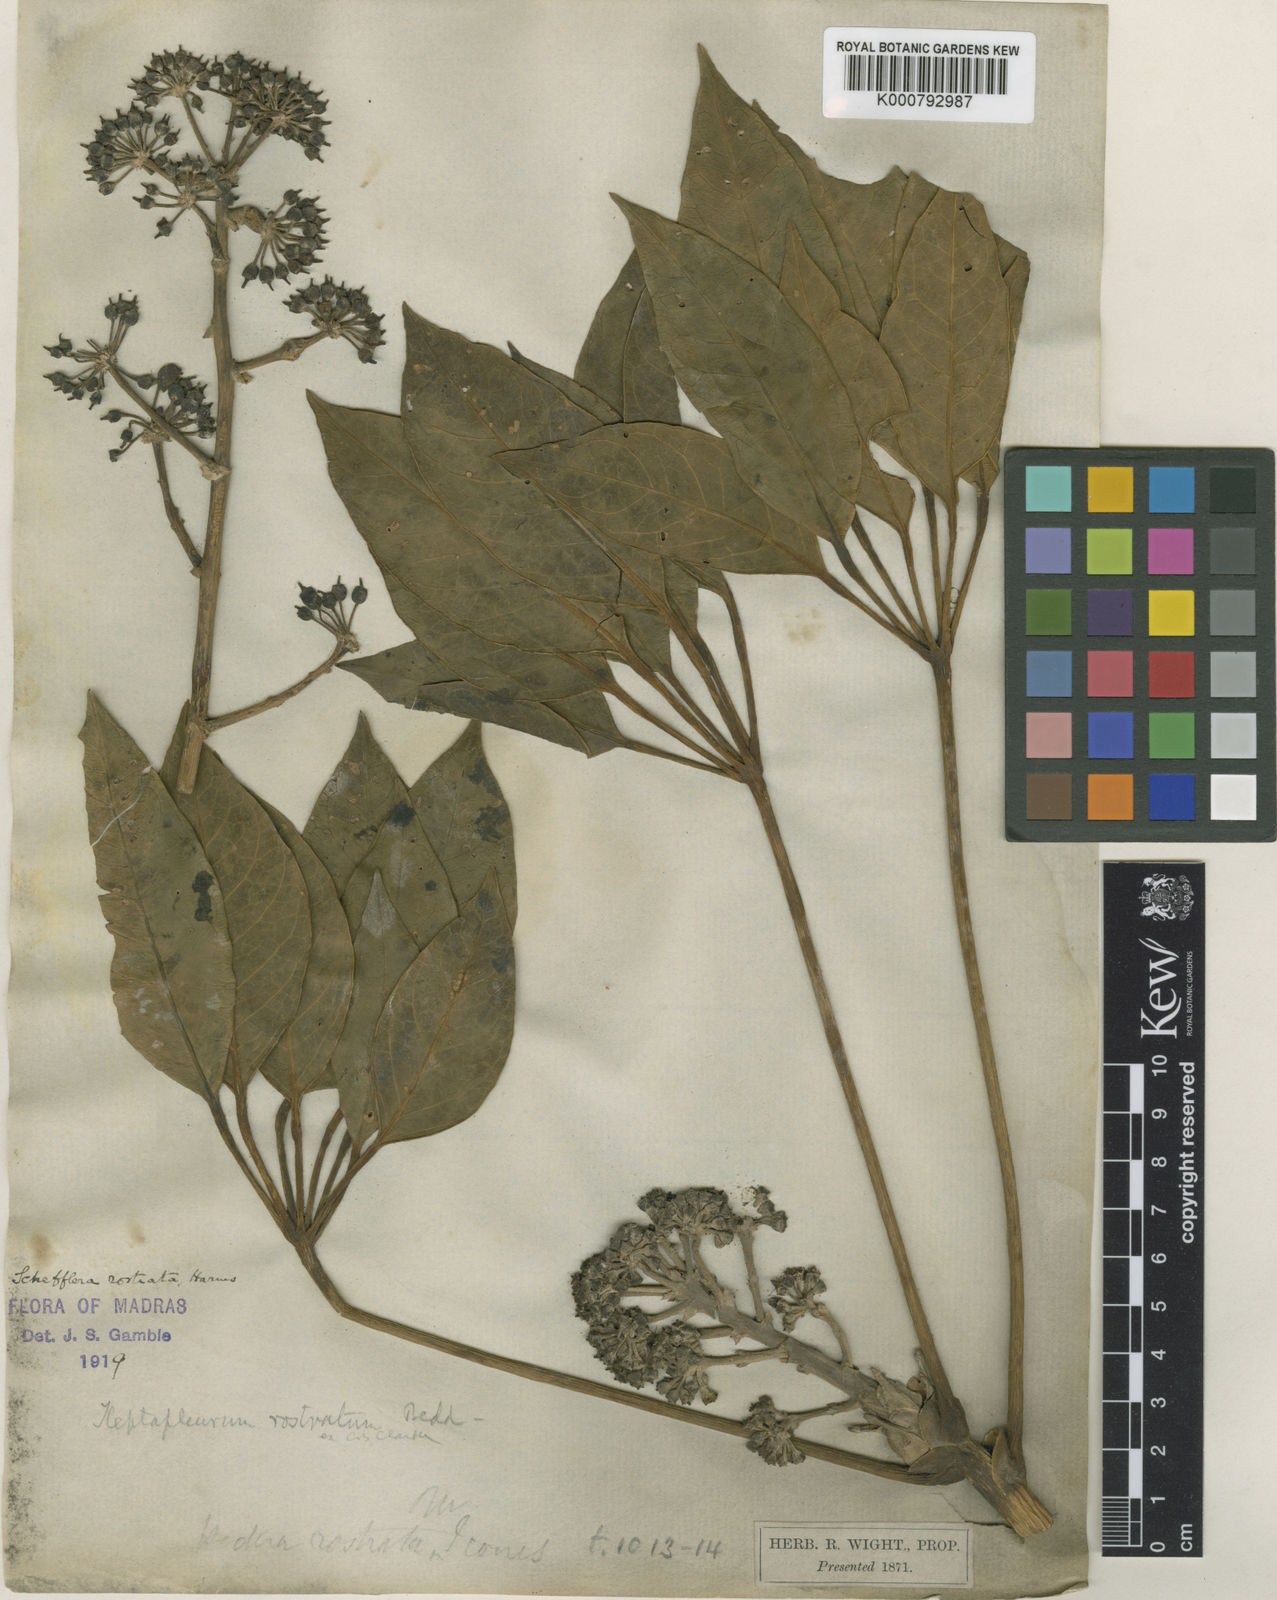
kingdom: Plantae
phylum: Tracheophyta
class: Magnoliopsida
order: Apiales
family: Araliaceae
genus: Heptapleurum
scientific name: Heptapleurum rostratum
